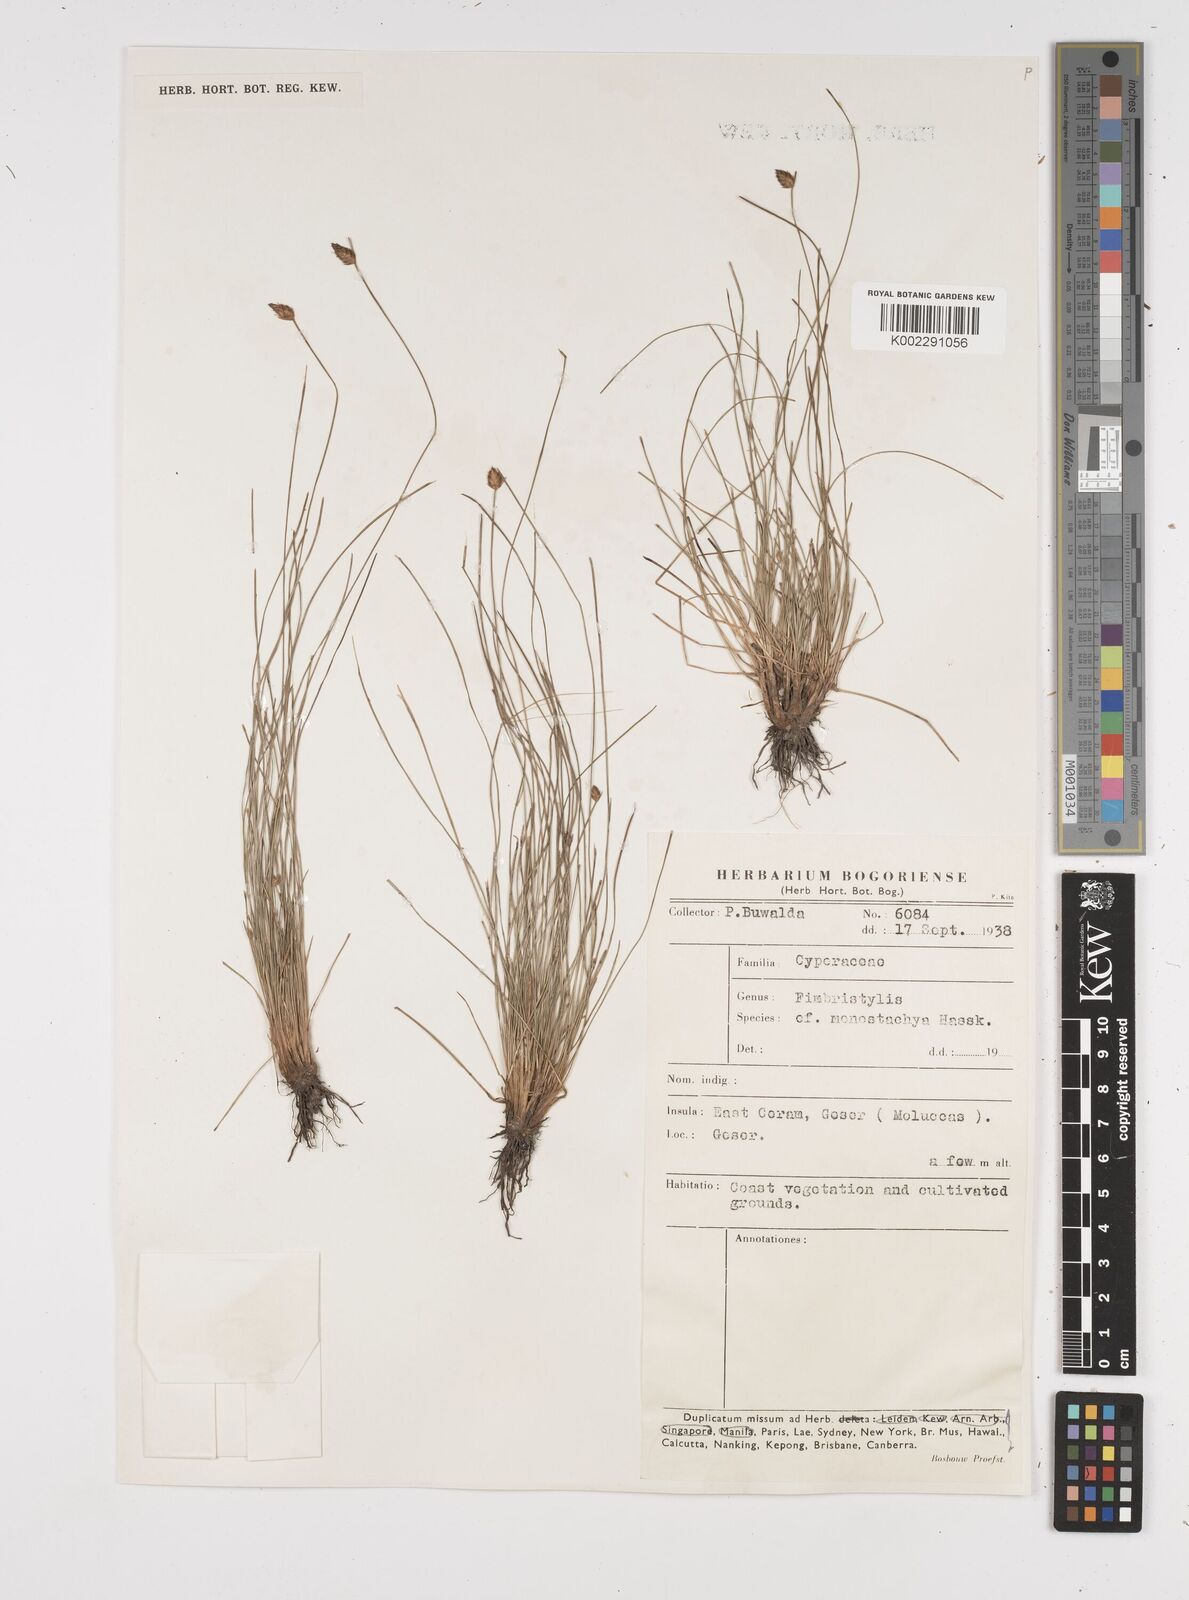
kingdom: Plantae
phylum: Tracheophyta
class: Liliopsida
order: Poales
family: Cyperaceae
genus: Abildgaardia
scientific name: Abildgaardia ovata
